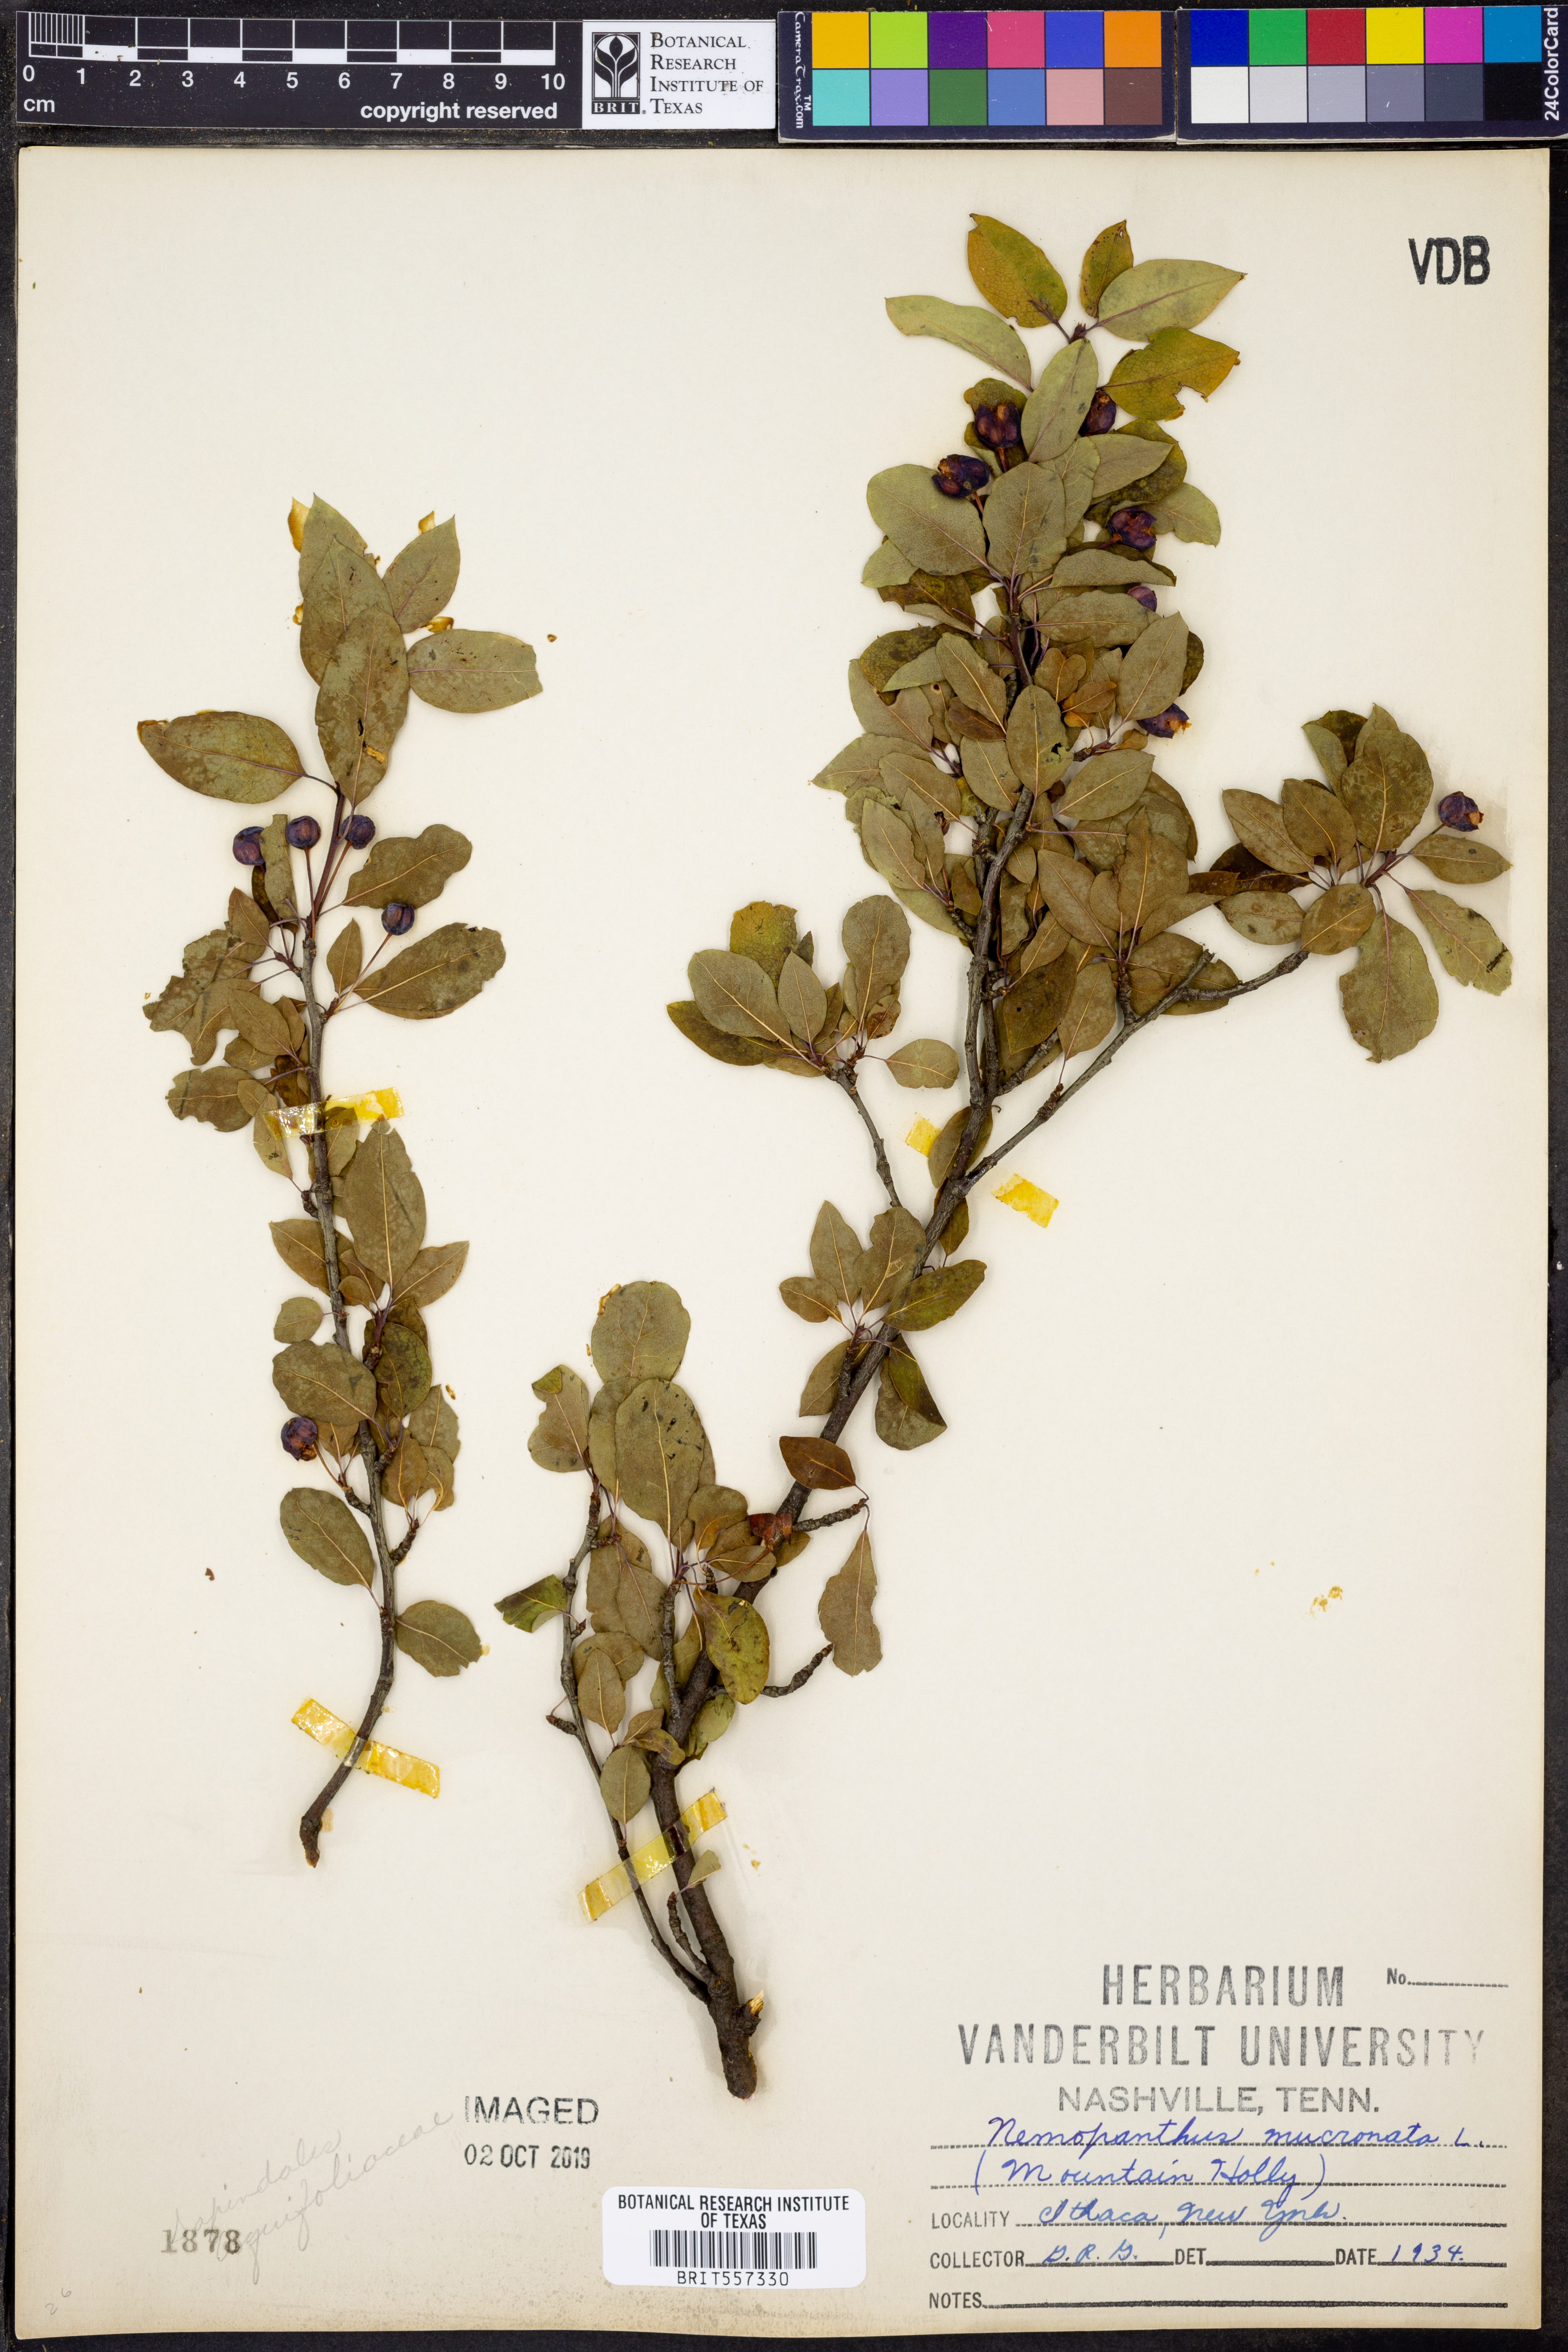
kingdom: Plantae
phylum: Tracheophyta
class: Magnoliopsida
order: Aquifoliales
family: Aquifoliaceae
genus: Ilex
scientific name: Ilex mucronata
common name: Catberry
